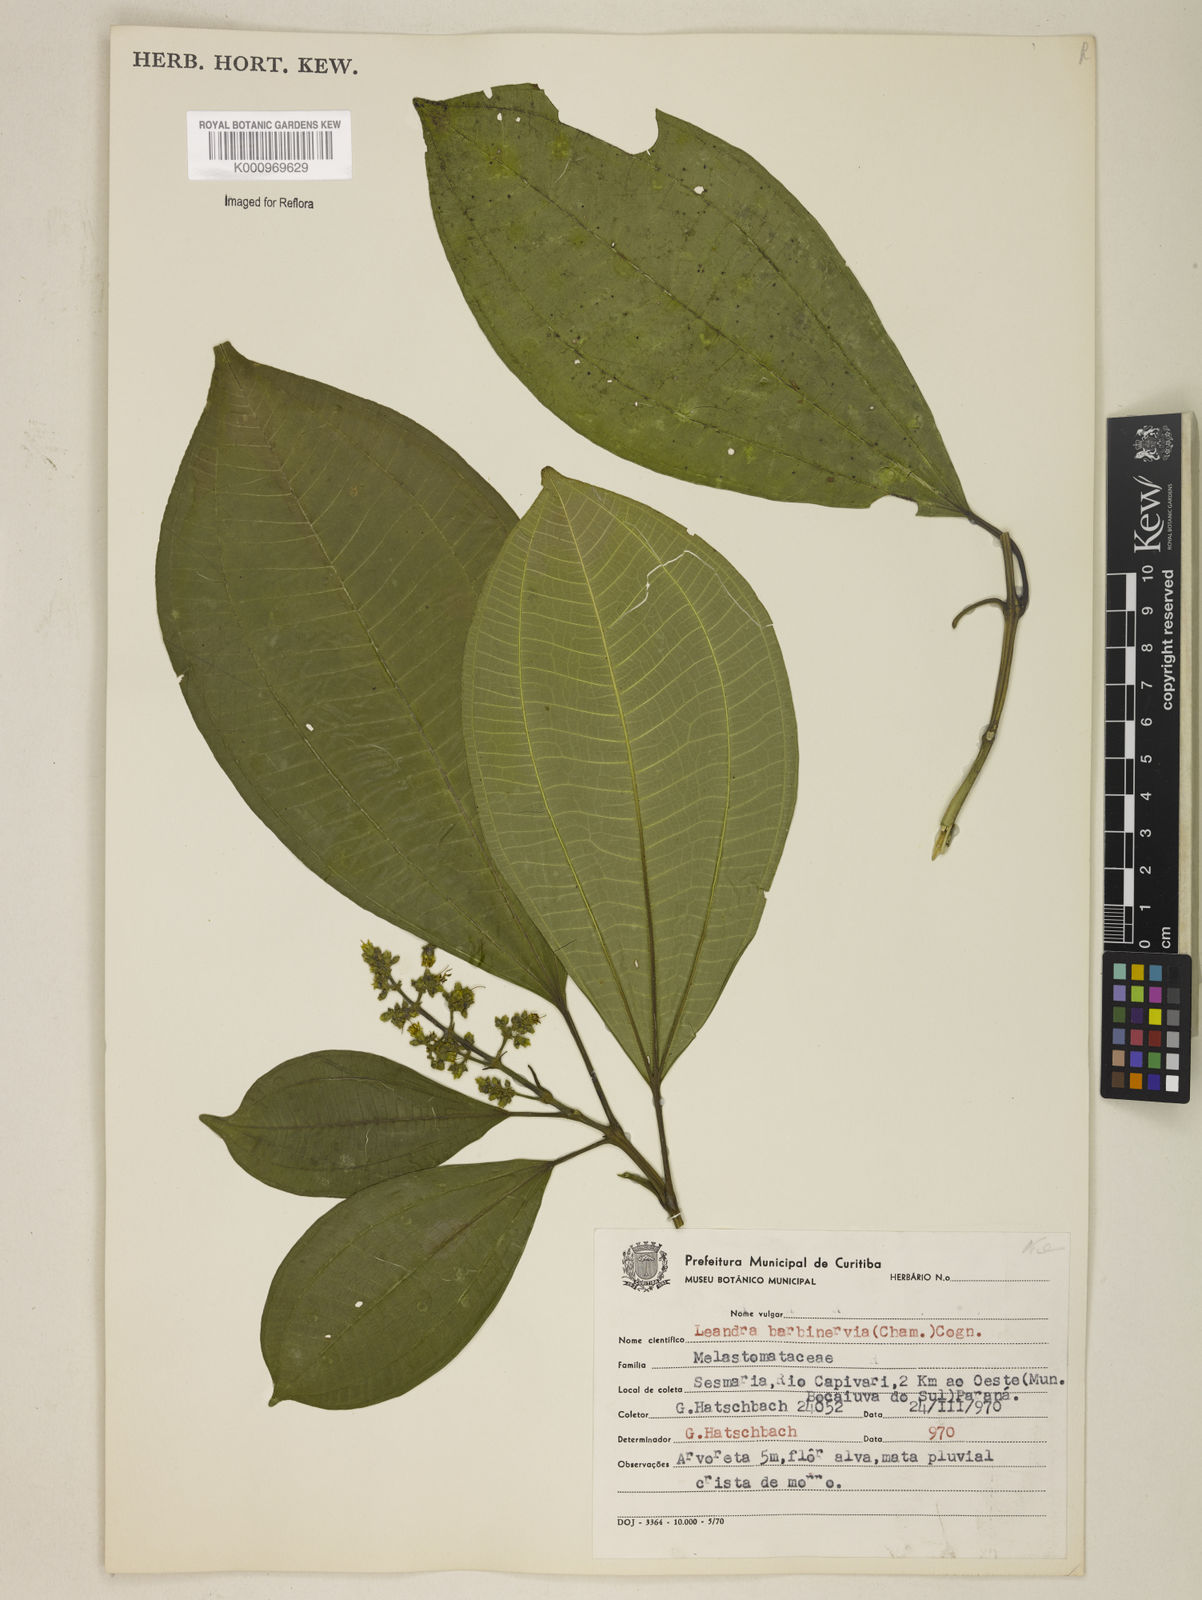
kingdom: Plantae
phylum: Tracheophyta
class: Magnoliopsida
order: Myrtales
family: Melastomataceae
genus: Miconia
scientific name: Miconia trauninensis
